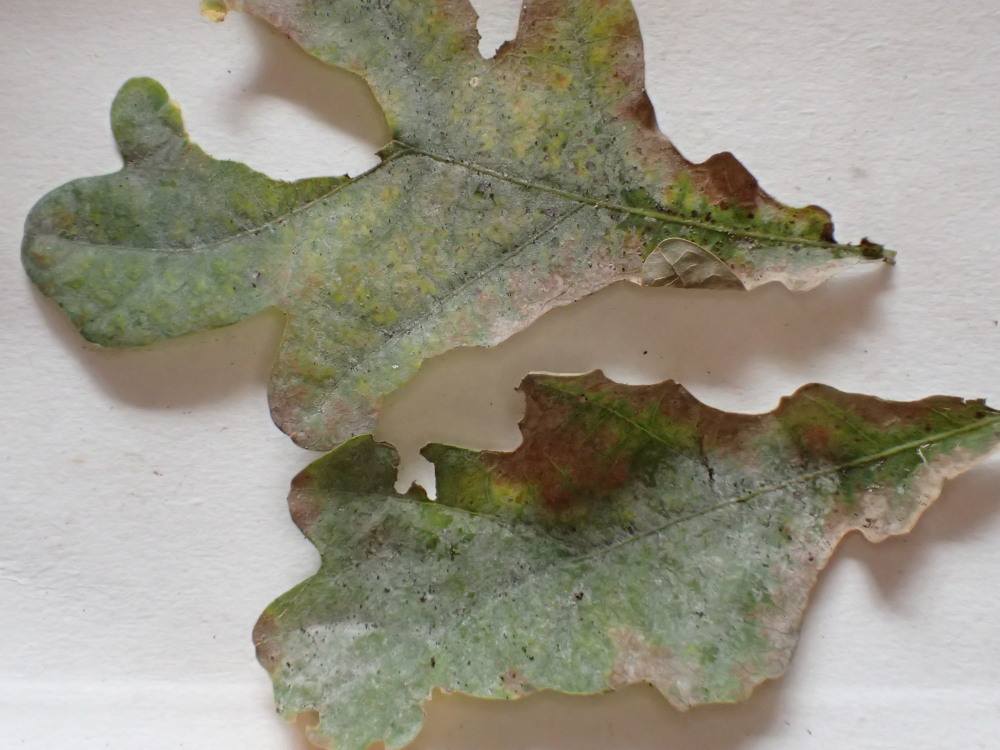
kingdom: Fungi
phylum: Ascomycota
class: Leotiomycetes
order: Helotiales
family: Erysiphaceae
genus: Erysiphe
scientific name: Erysiphe alphitoides
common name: ege-meldug
